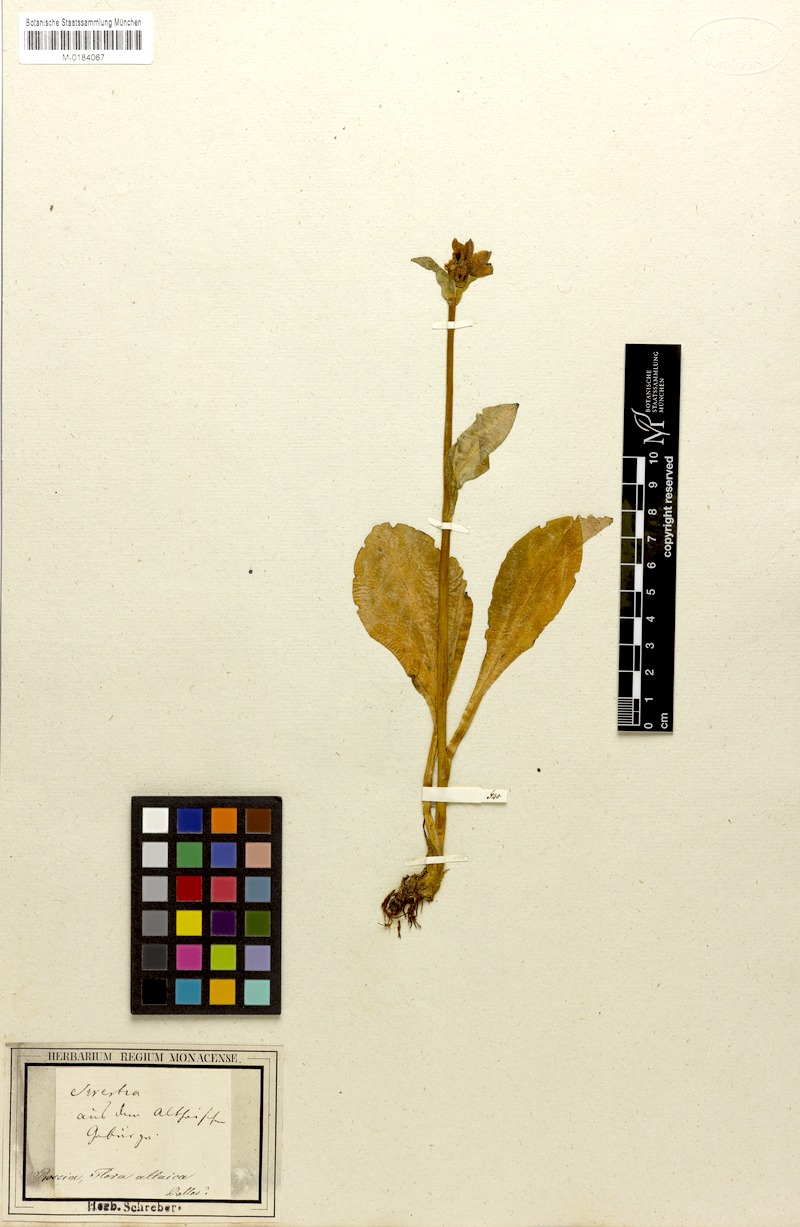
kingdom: Plantae
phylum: Tracheophyta
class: Magnoliopsida
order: Gentianales
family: Gentianaceae
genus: Swertia
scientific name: Swertia obtusa
